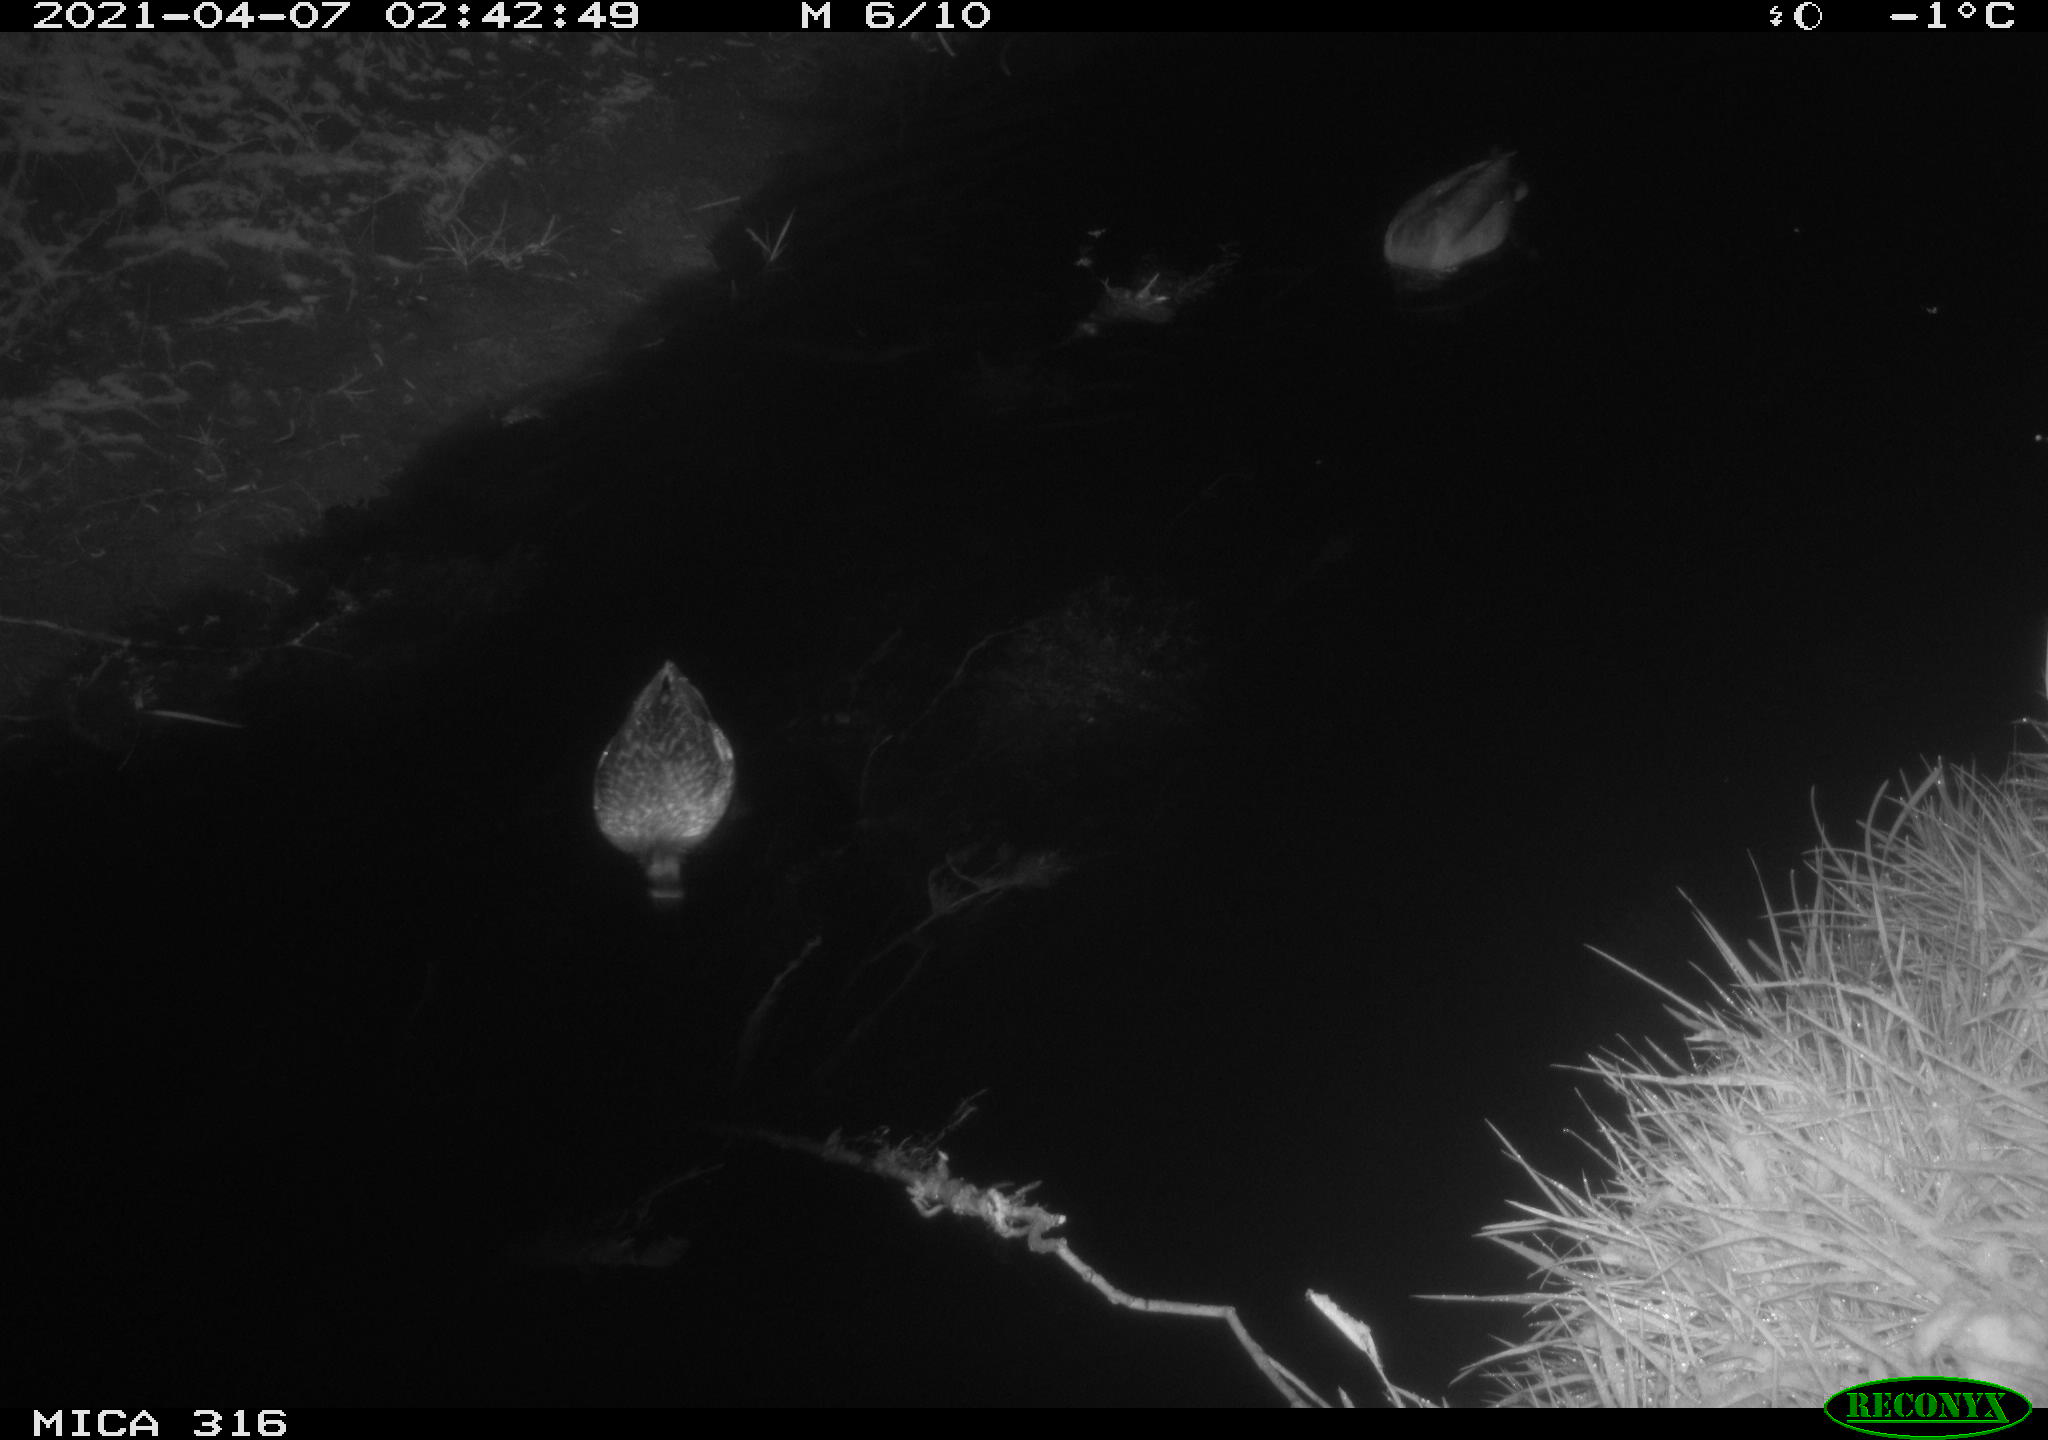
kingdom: Animalia
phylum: Chordata
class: Aves
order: Anseriformes
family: Anatidae
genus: Anas
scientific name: Anas platyrhynchos
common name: Mallard
